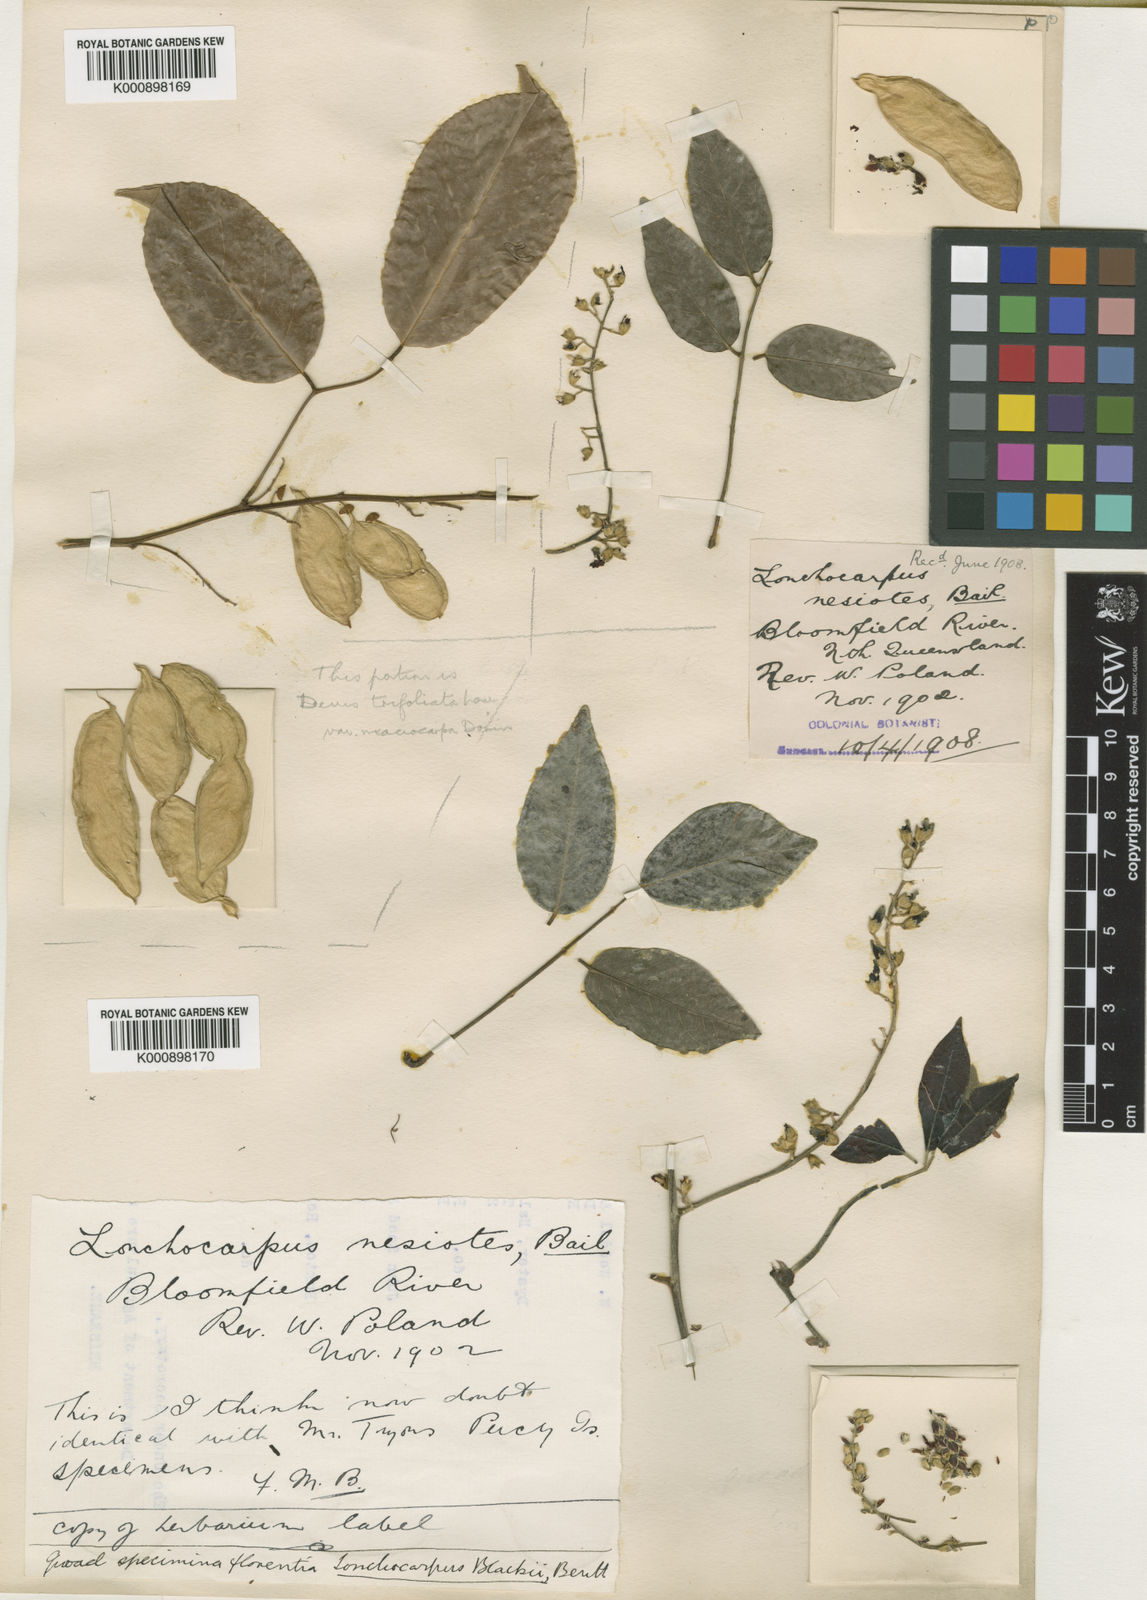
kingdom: Plantae
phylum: Tracheophyta
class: Magnoliopsida
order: Fabales
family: Fabaceae
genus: Austrosteenisia
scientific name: Austrosteenisia blackii
